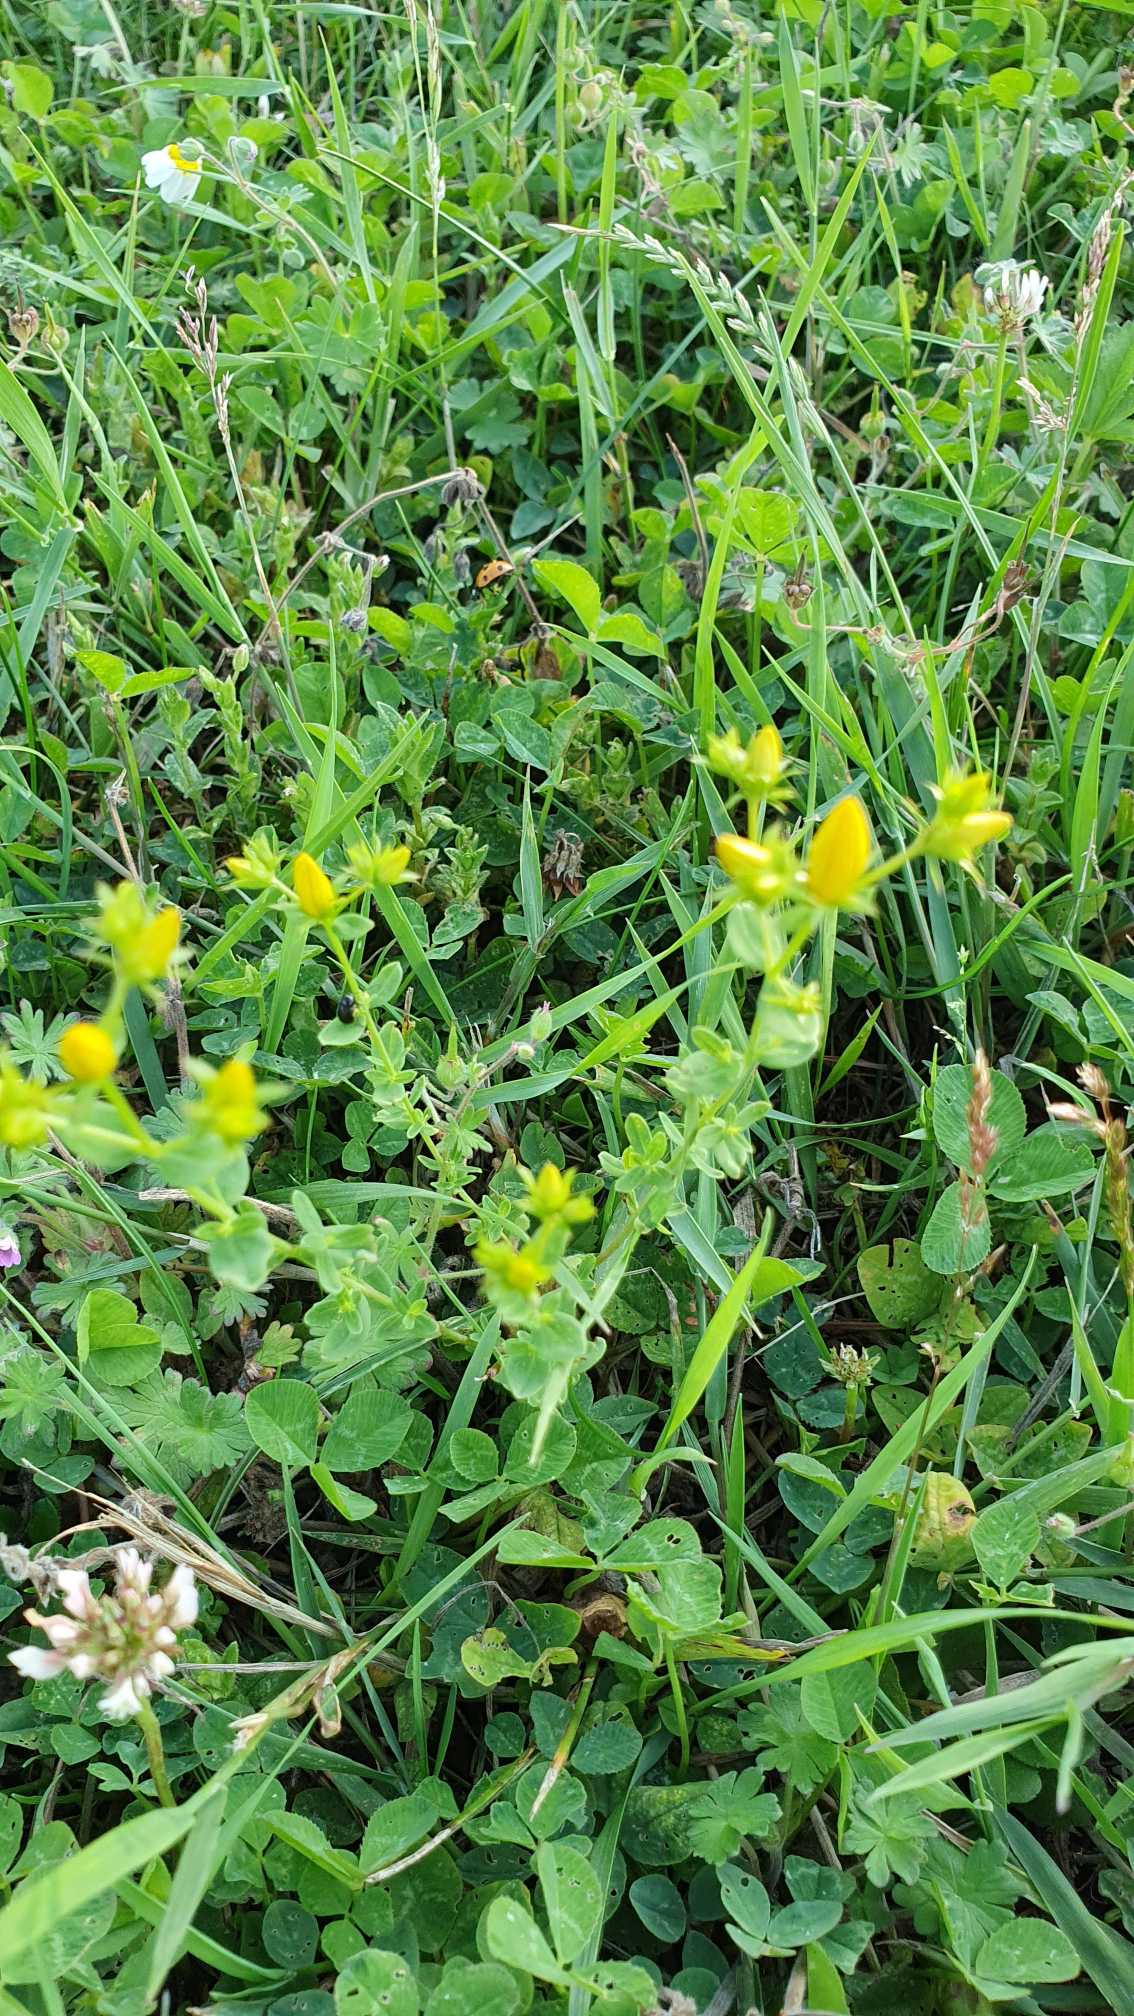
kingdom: Plantae
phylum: Tracheophyta
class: Magnoliopsida
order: Malpighiales
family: Hypericaceae
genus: Hypericum
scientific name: Hypericum perforatum
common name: Prikbladet perikon
